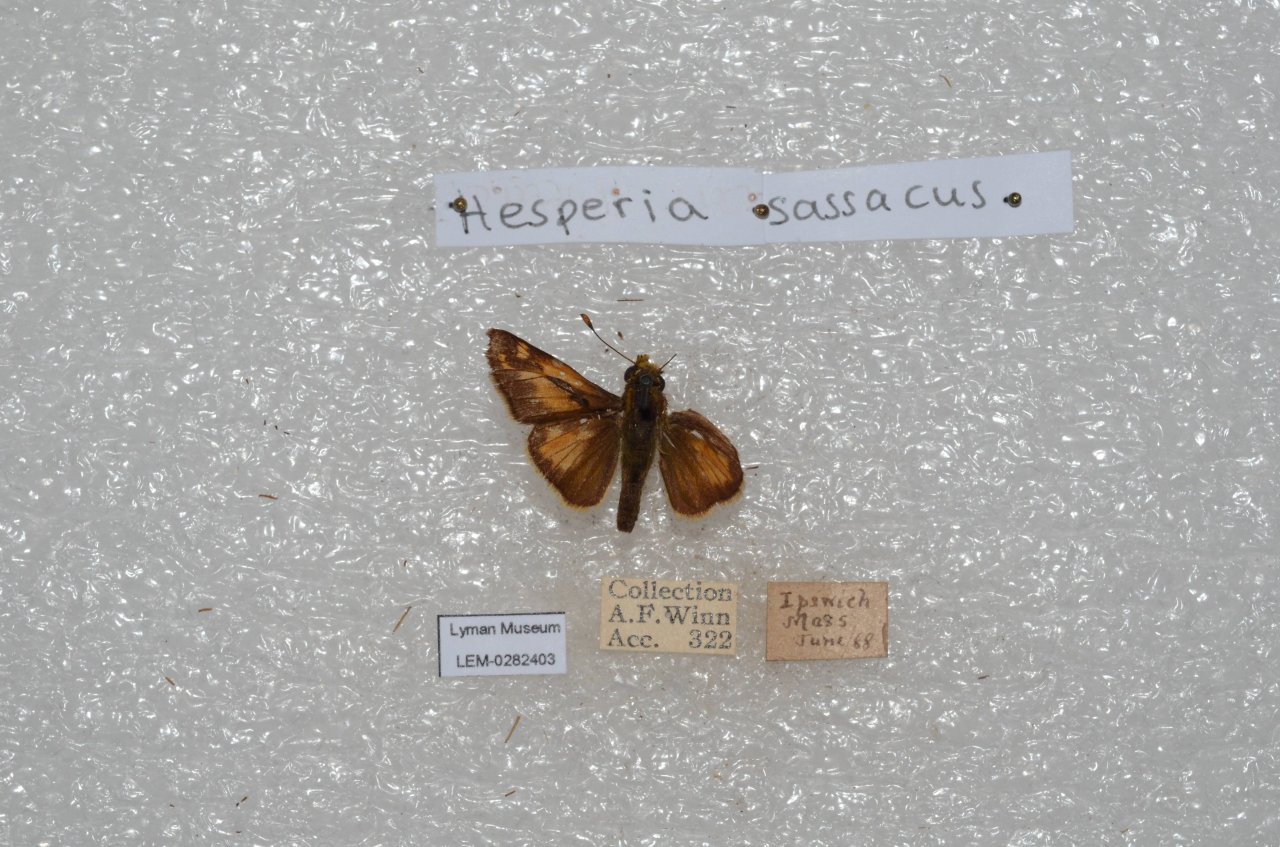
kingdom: Animalia
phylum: Arthropoda
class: Insecta
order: Lepidoptera
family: Hesperiidae
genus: Hesperia
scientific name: Hesperia sassacus
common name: Sassacus Skipper
